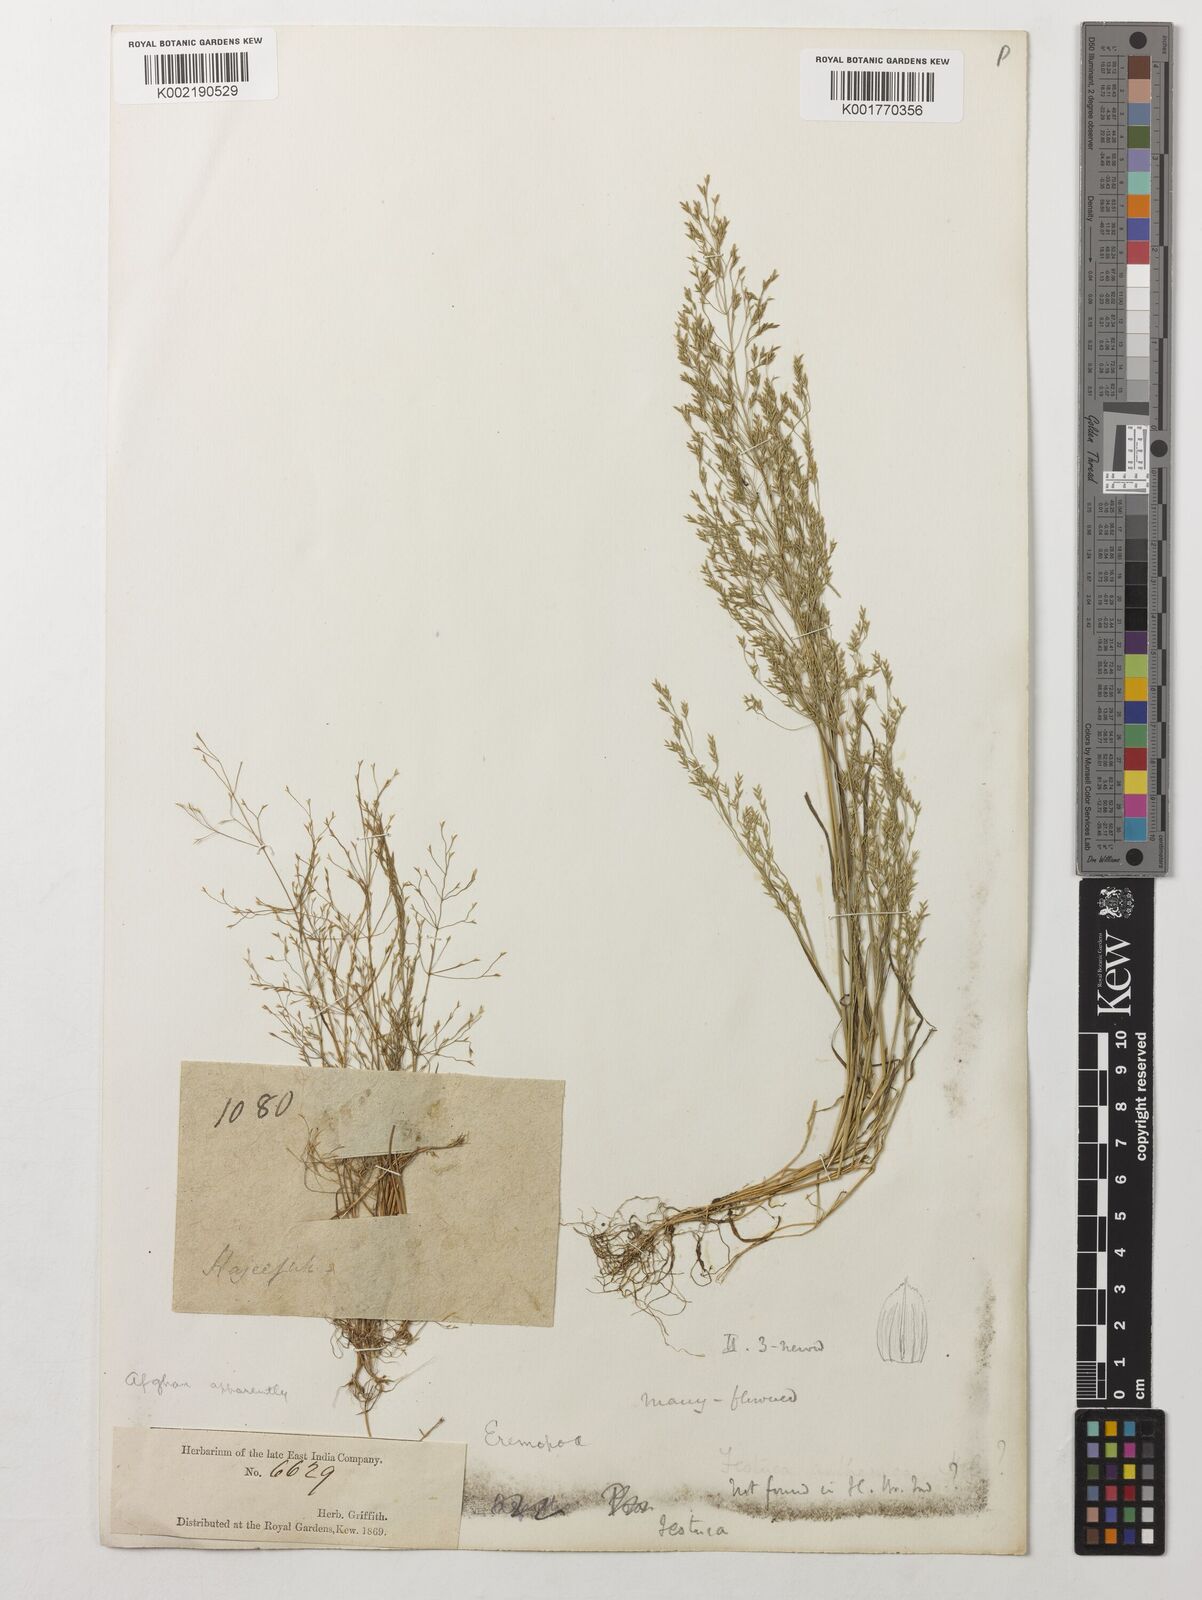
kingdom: Plantae
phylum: Tracheophyta
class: Liliopsida
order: Poales
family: Poaceae
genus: Poa
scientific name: Poa diaphora
